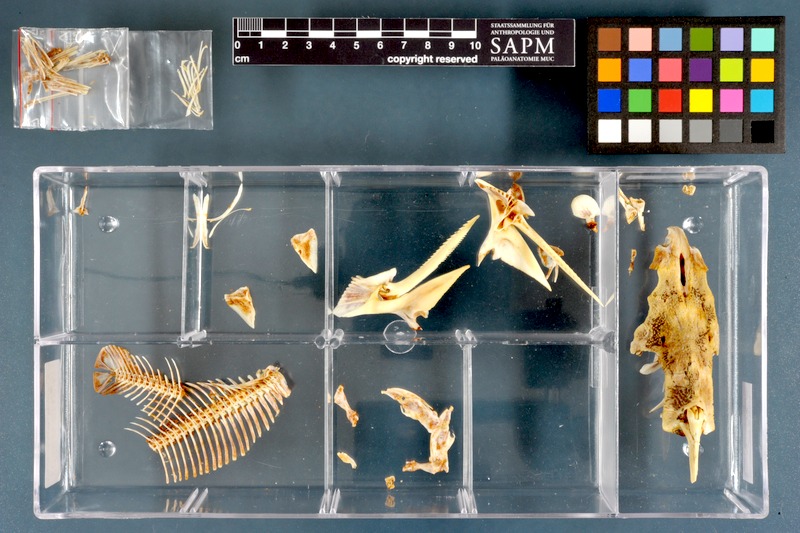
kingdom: Animalia
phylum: Chordata
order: Siluriformes
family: Mochokidae
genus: Synodontis
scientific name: Synodontis schall
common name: Wahrindi
